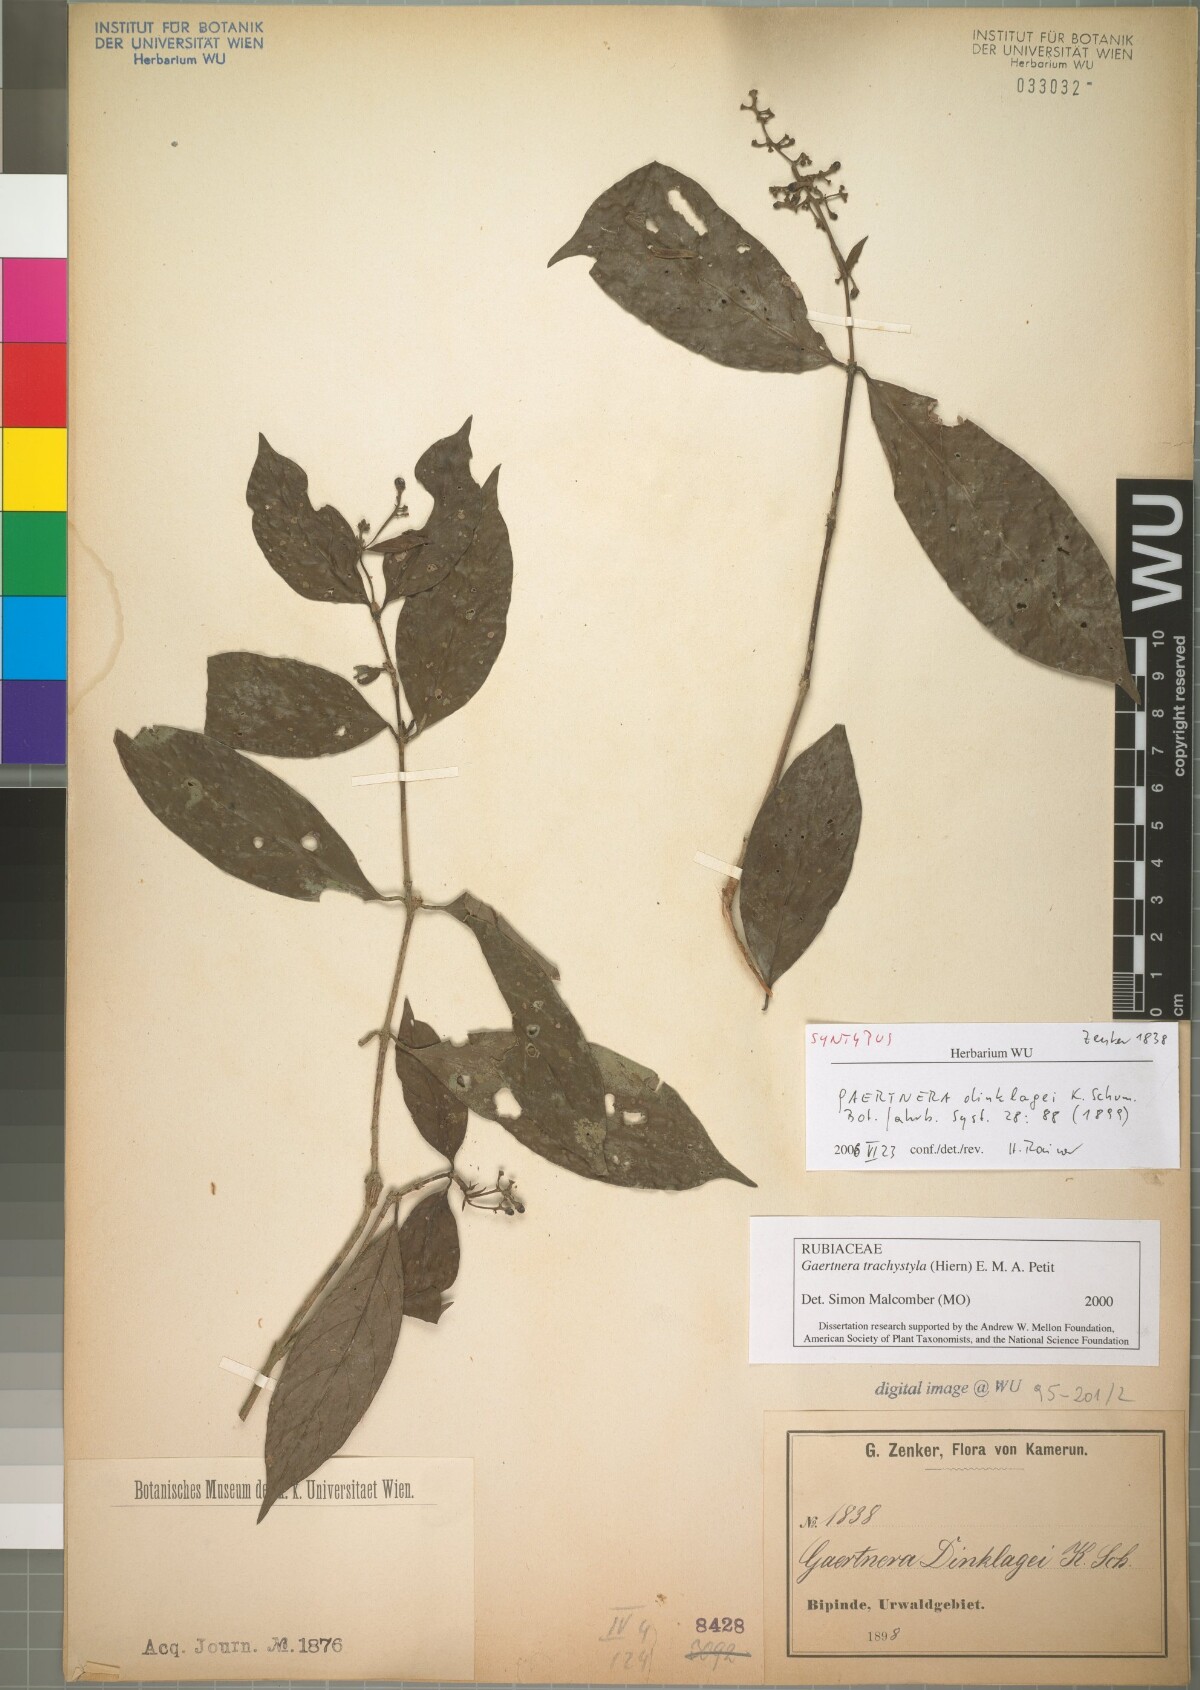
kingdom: Plantae
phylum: Tracheophyta
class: Magnoliopsida
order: Gentianales
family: Rubiaceae
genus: Gaertnera
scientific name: Gaertnera trachystyla
